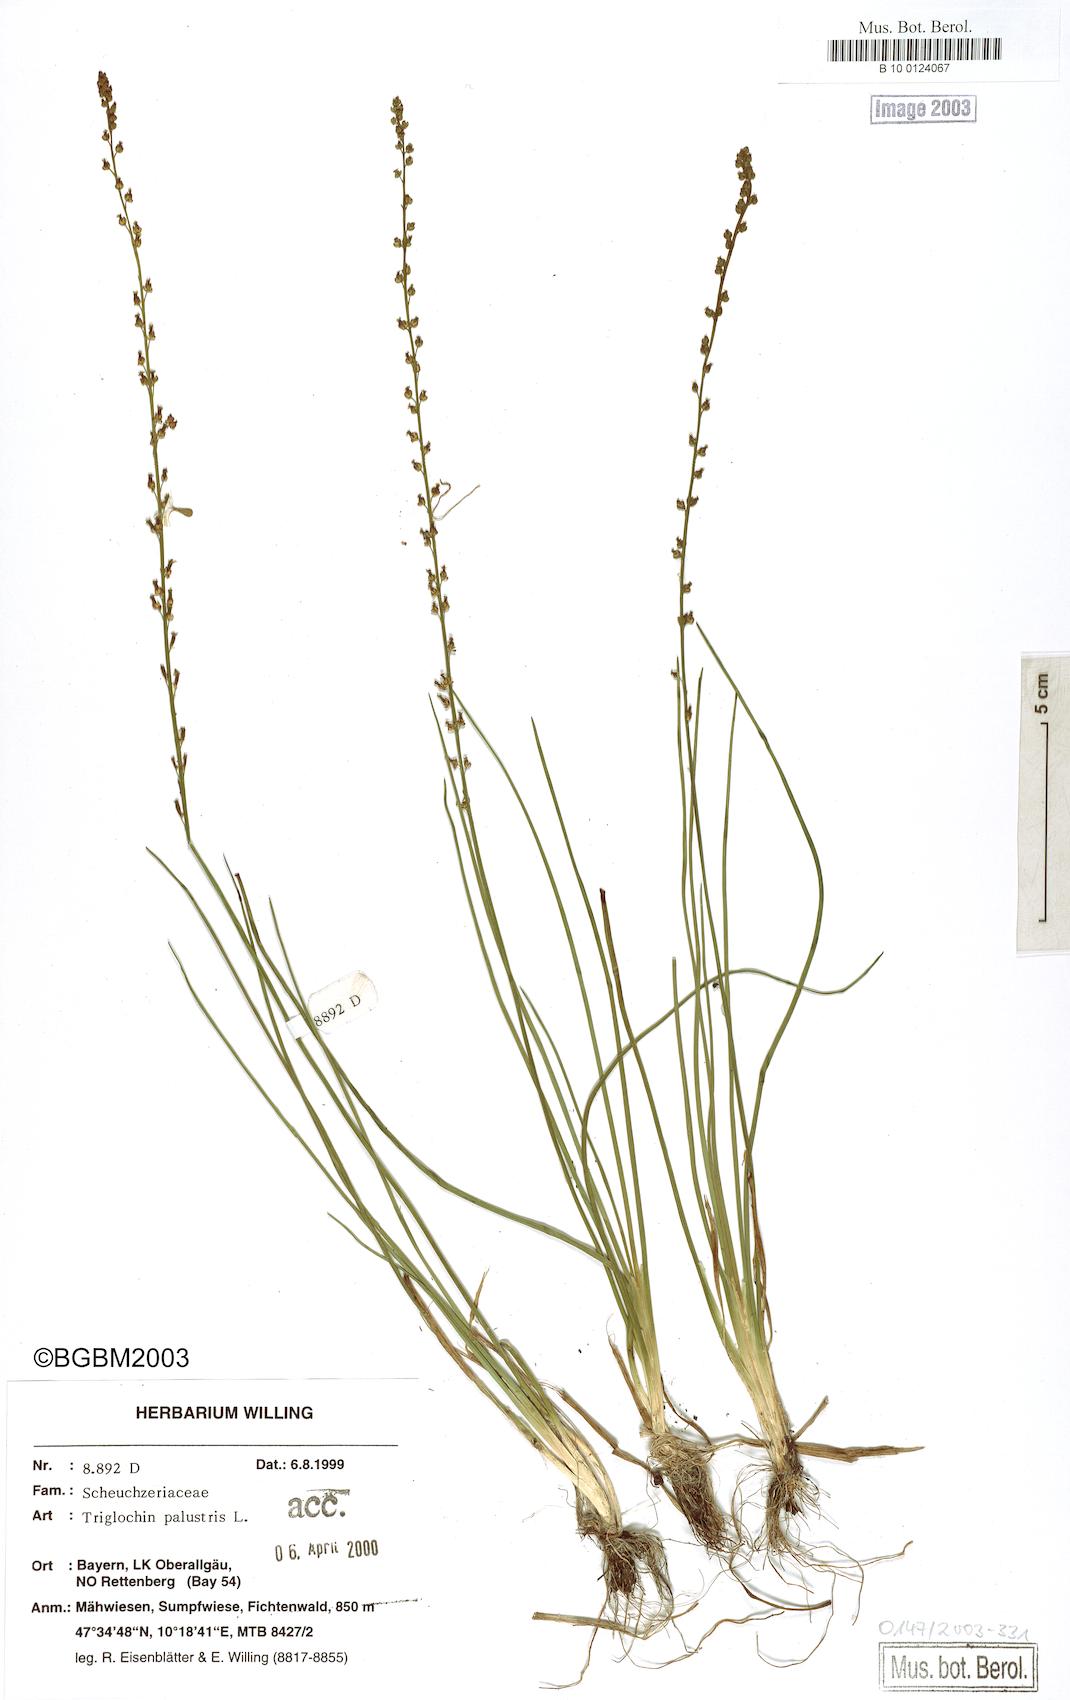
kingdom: Plantae
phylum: Tracheophyta
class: Liliopsida
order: Alismatales
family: Juncaginaceae
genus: Triglochin
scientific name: Triglochin palustris
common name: Marsh arrowgrass
